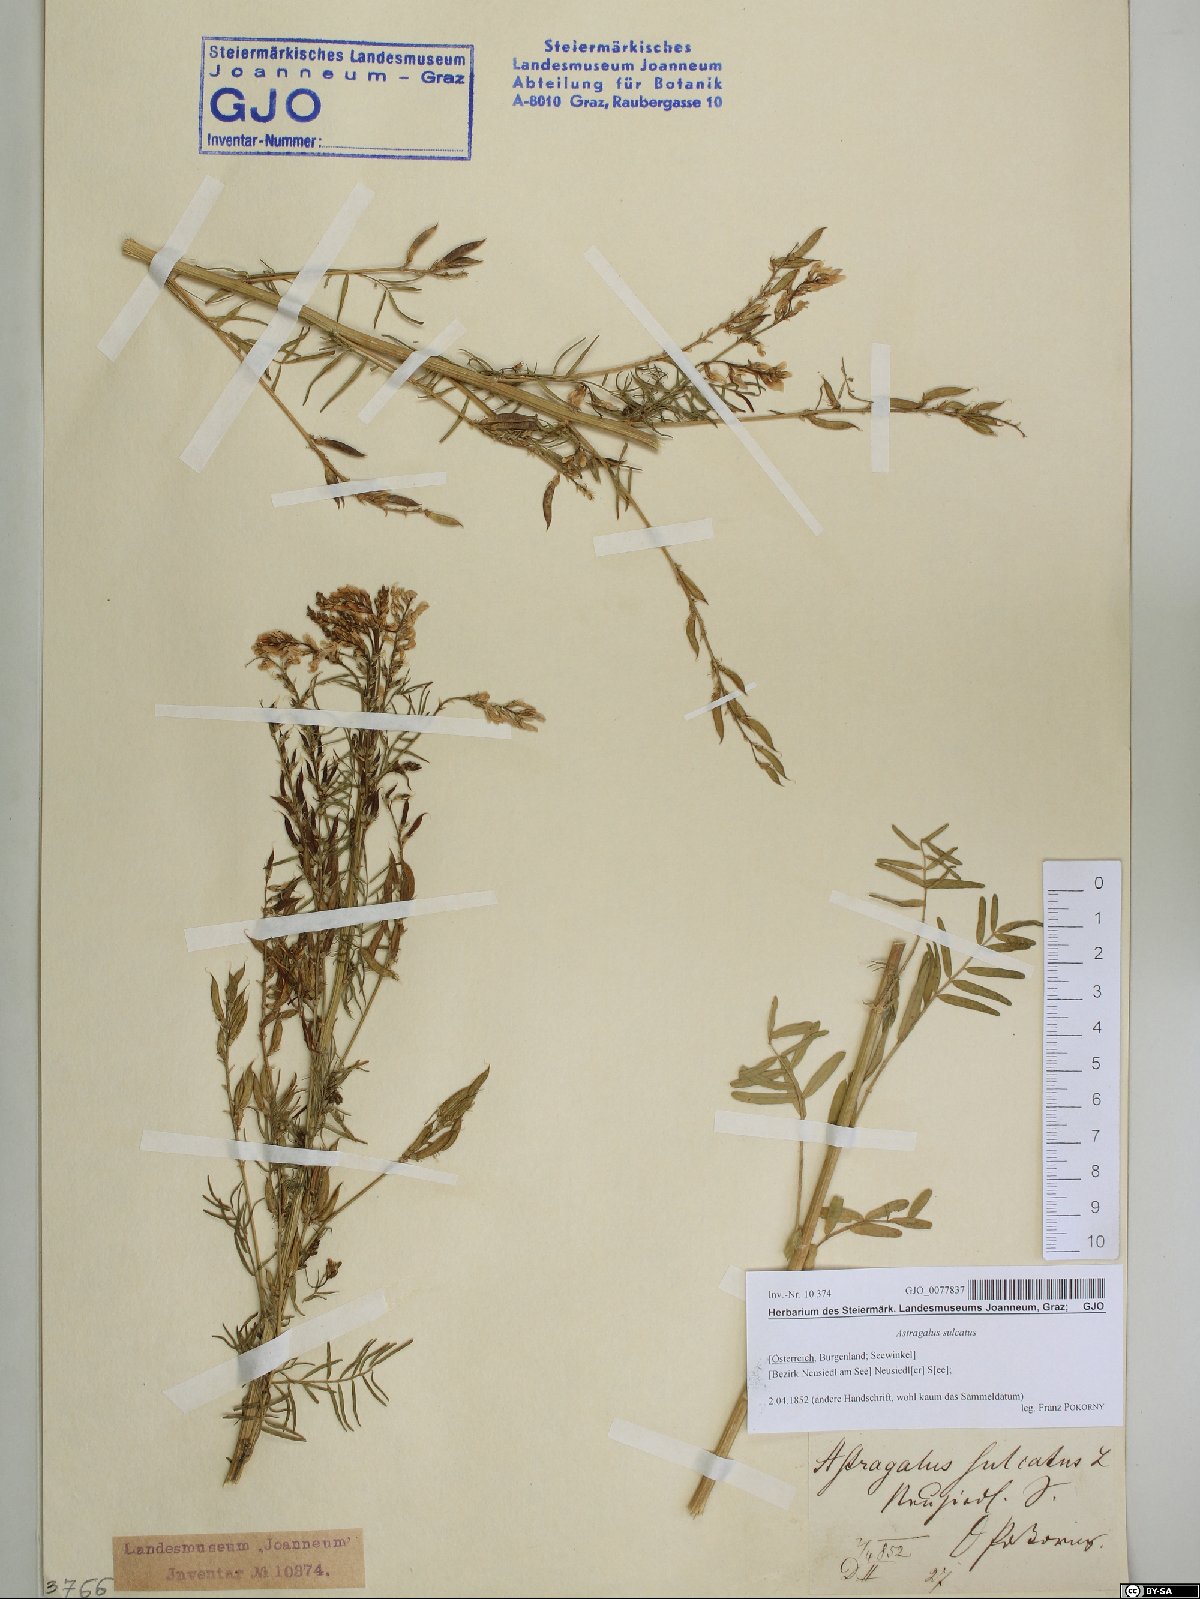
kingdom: Plantae
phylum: Tracheophyta
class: Magnoliopsida
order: Fabales
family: Fabaceae
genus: Astragalus
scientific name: Astragalus sulcatus
